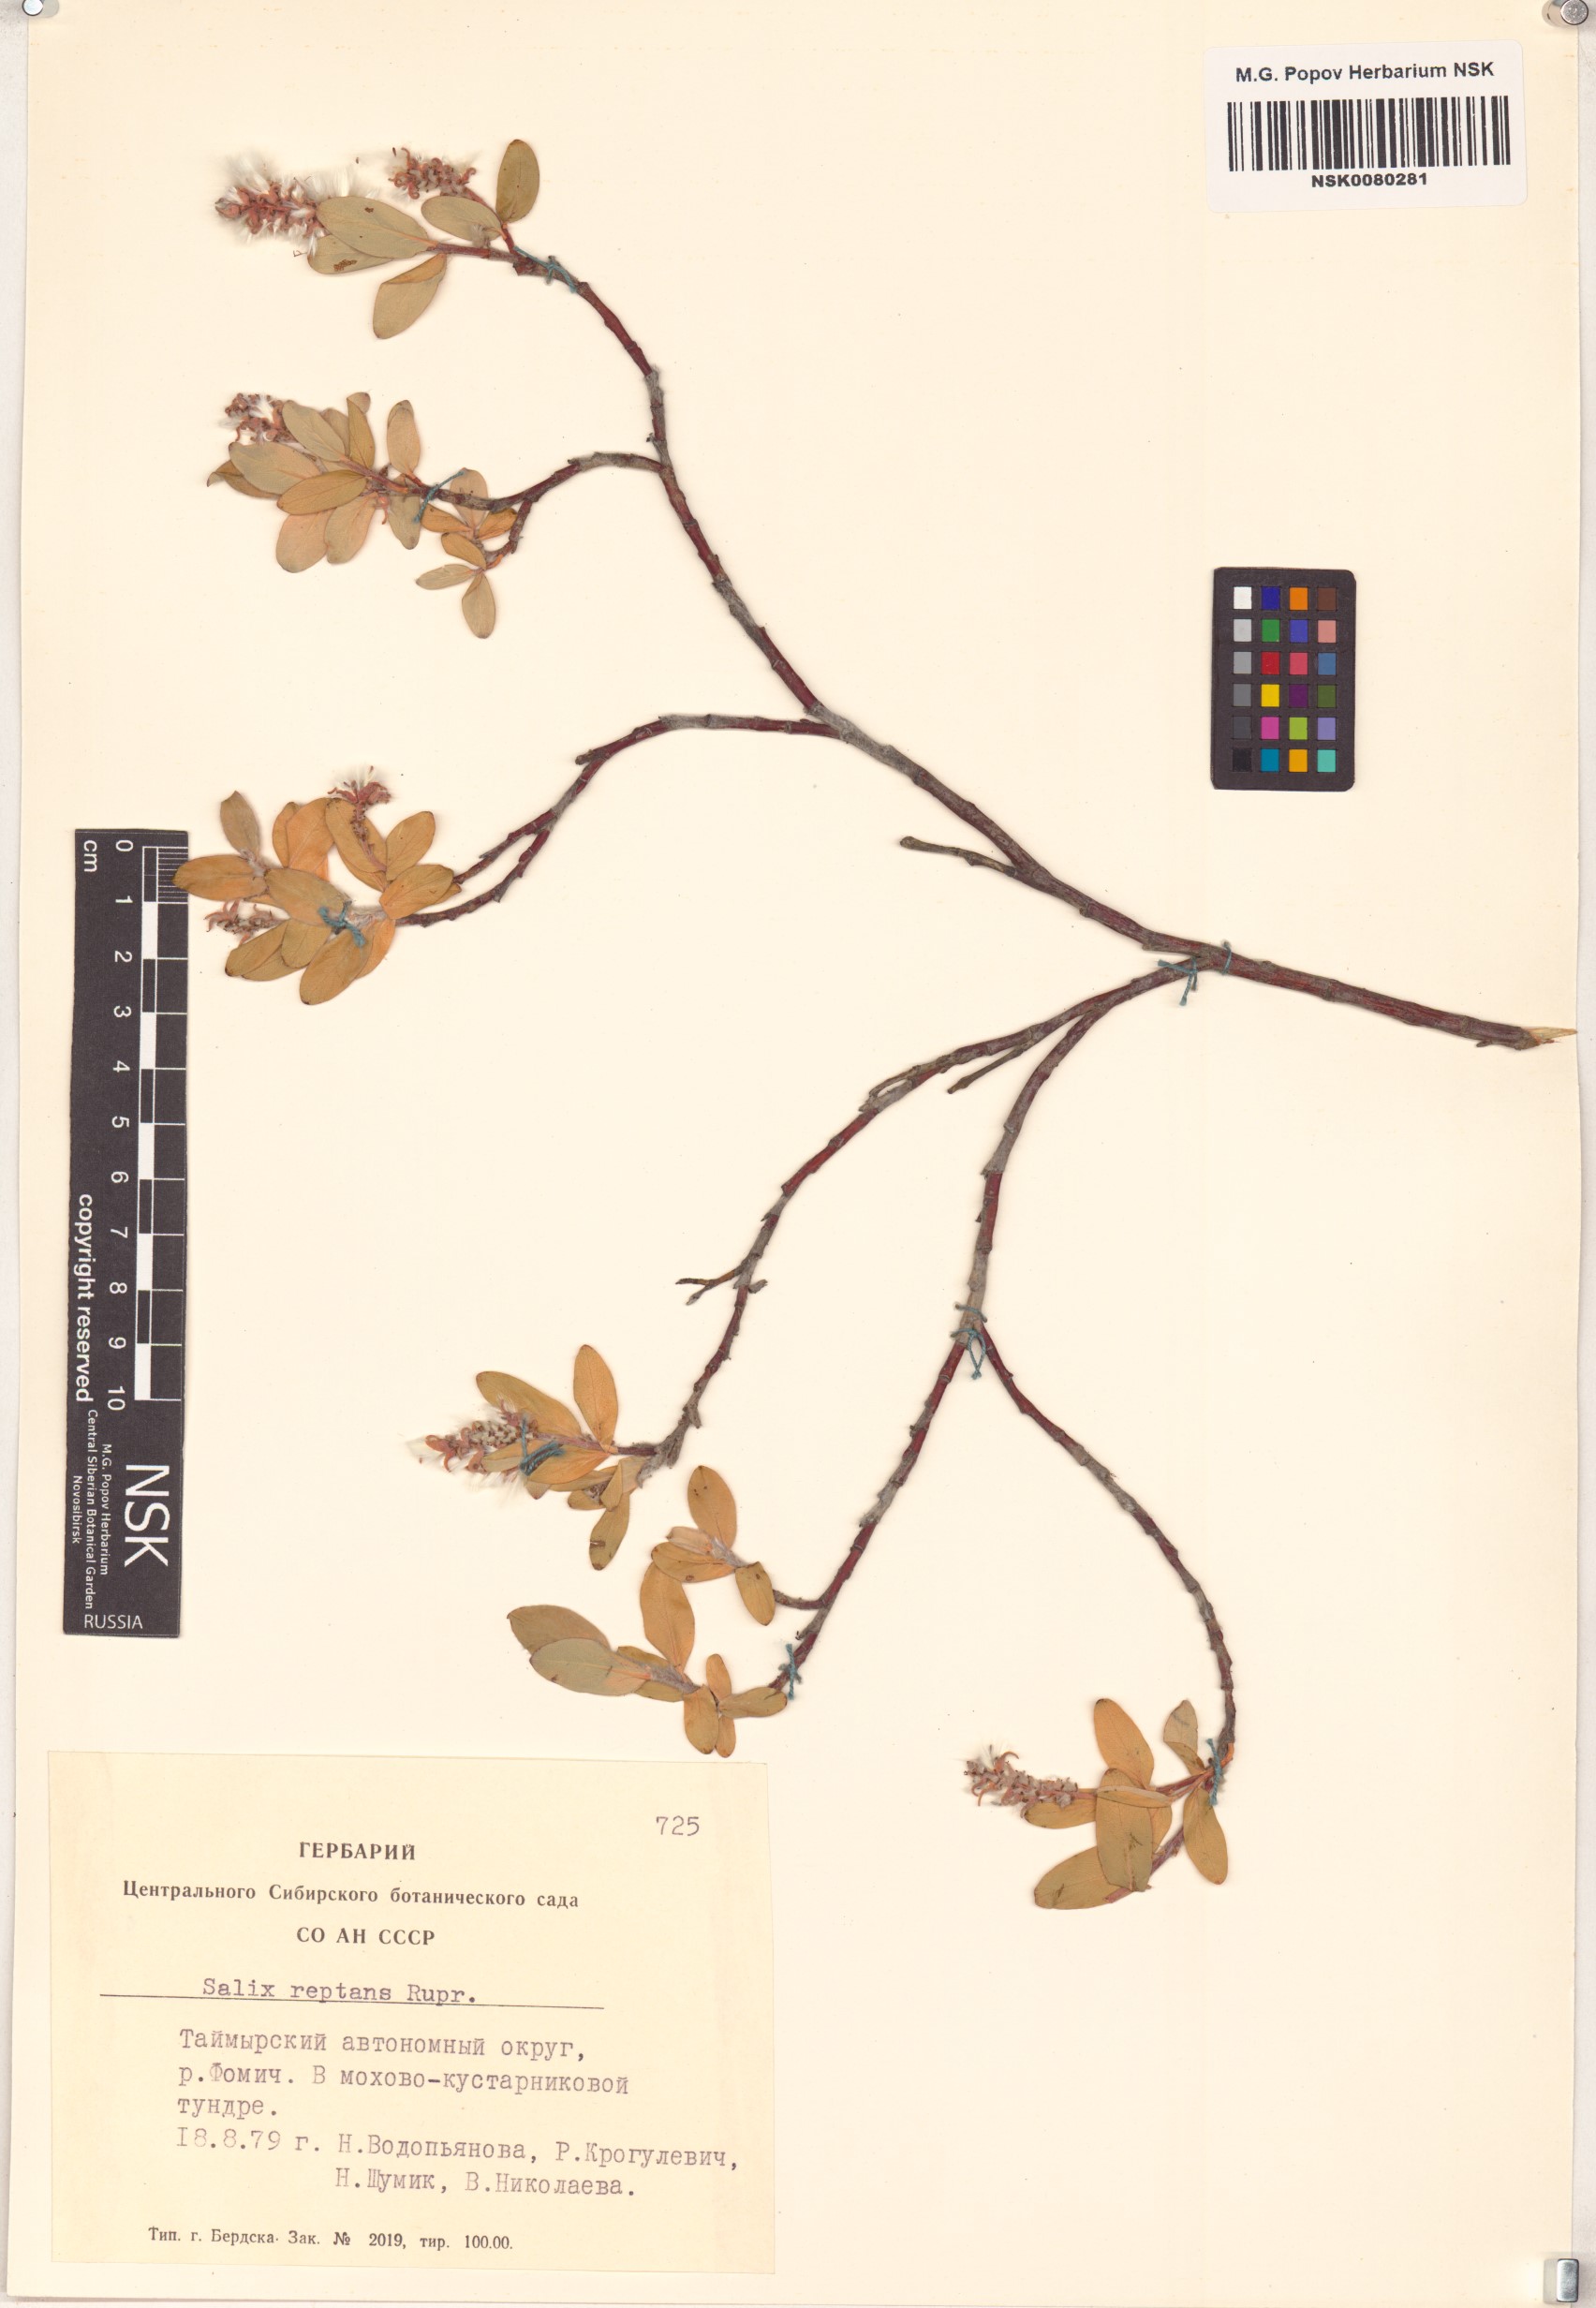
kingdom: Plantae
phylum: Tracheophyta
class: Magnoliopsida
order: Malpighiales
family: Salicaceae
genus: Salix
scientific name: Salix reptans
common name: Arctic creeping willow
